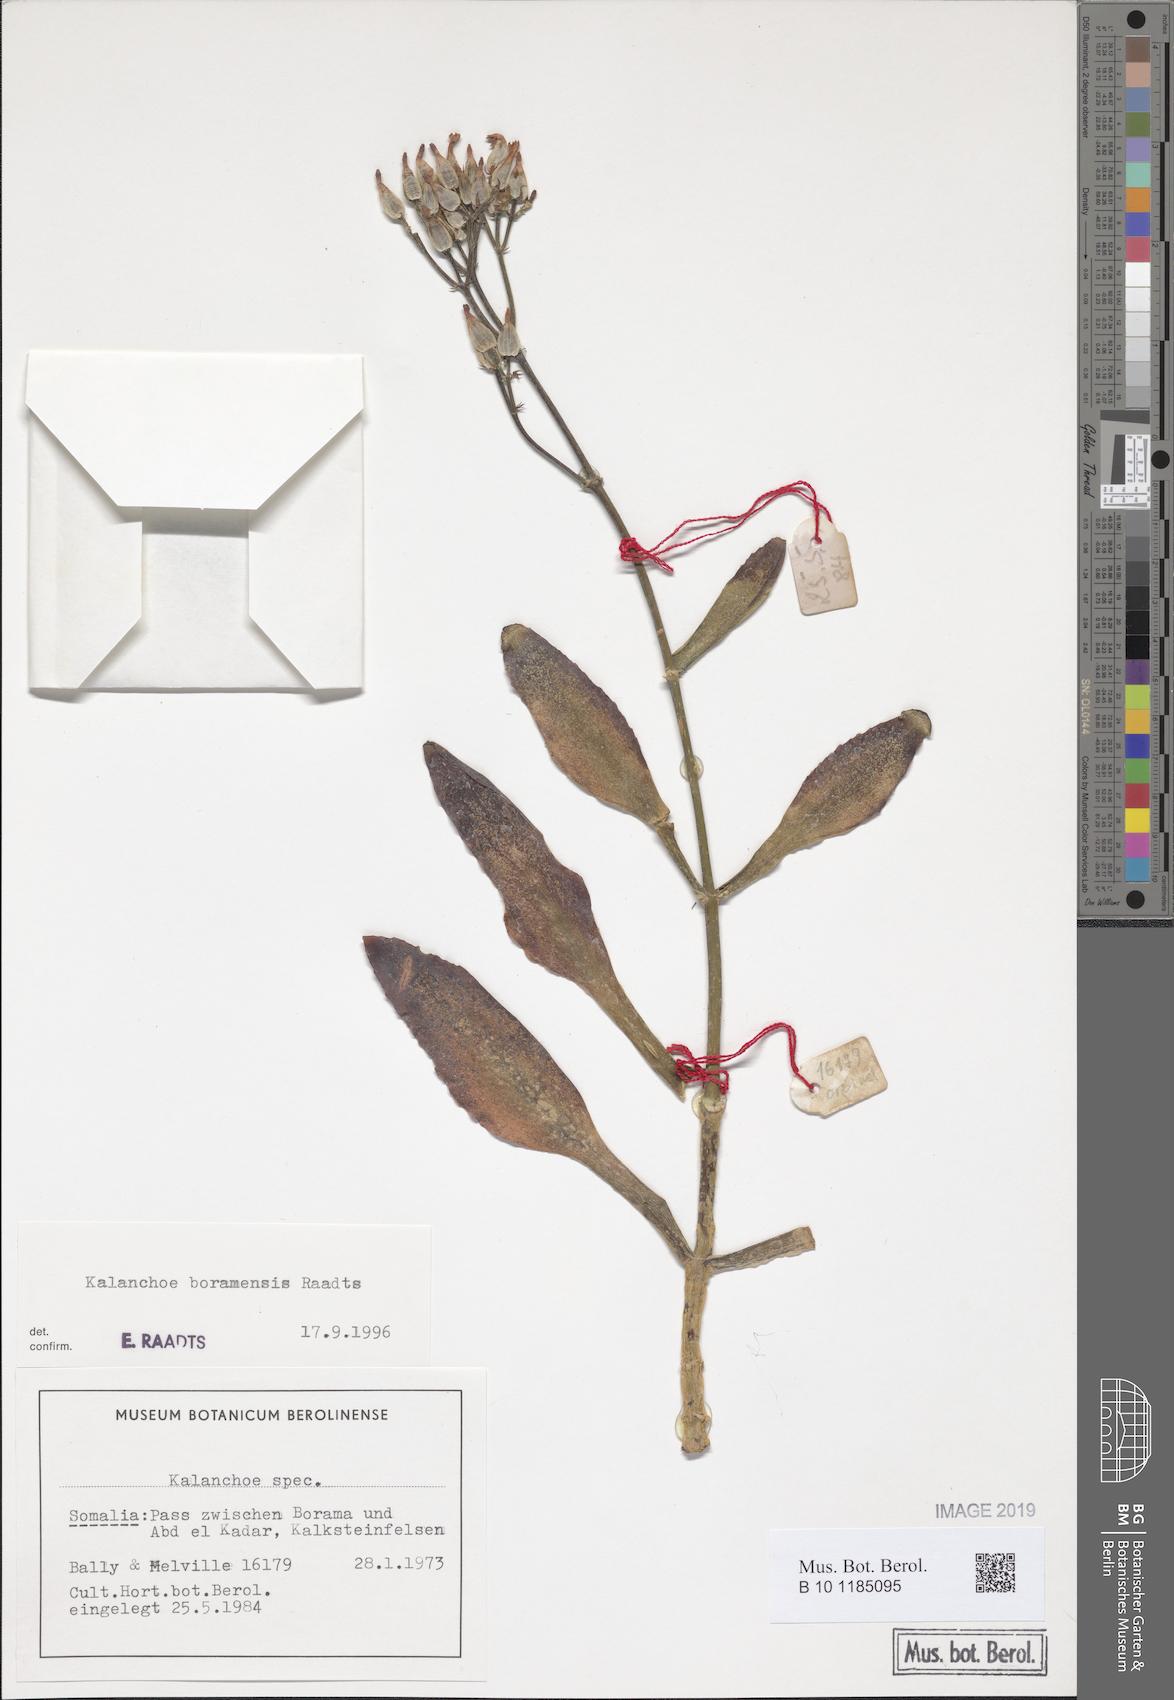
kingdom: Plantae
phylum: Tracheophyta
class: Magnoliopsida
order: Saxifragales
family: Crassulaceae
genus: Kalanchoe
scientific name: Kalanchoe
